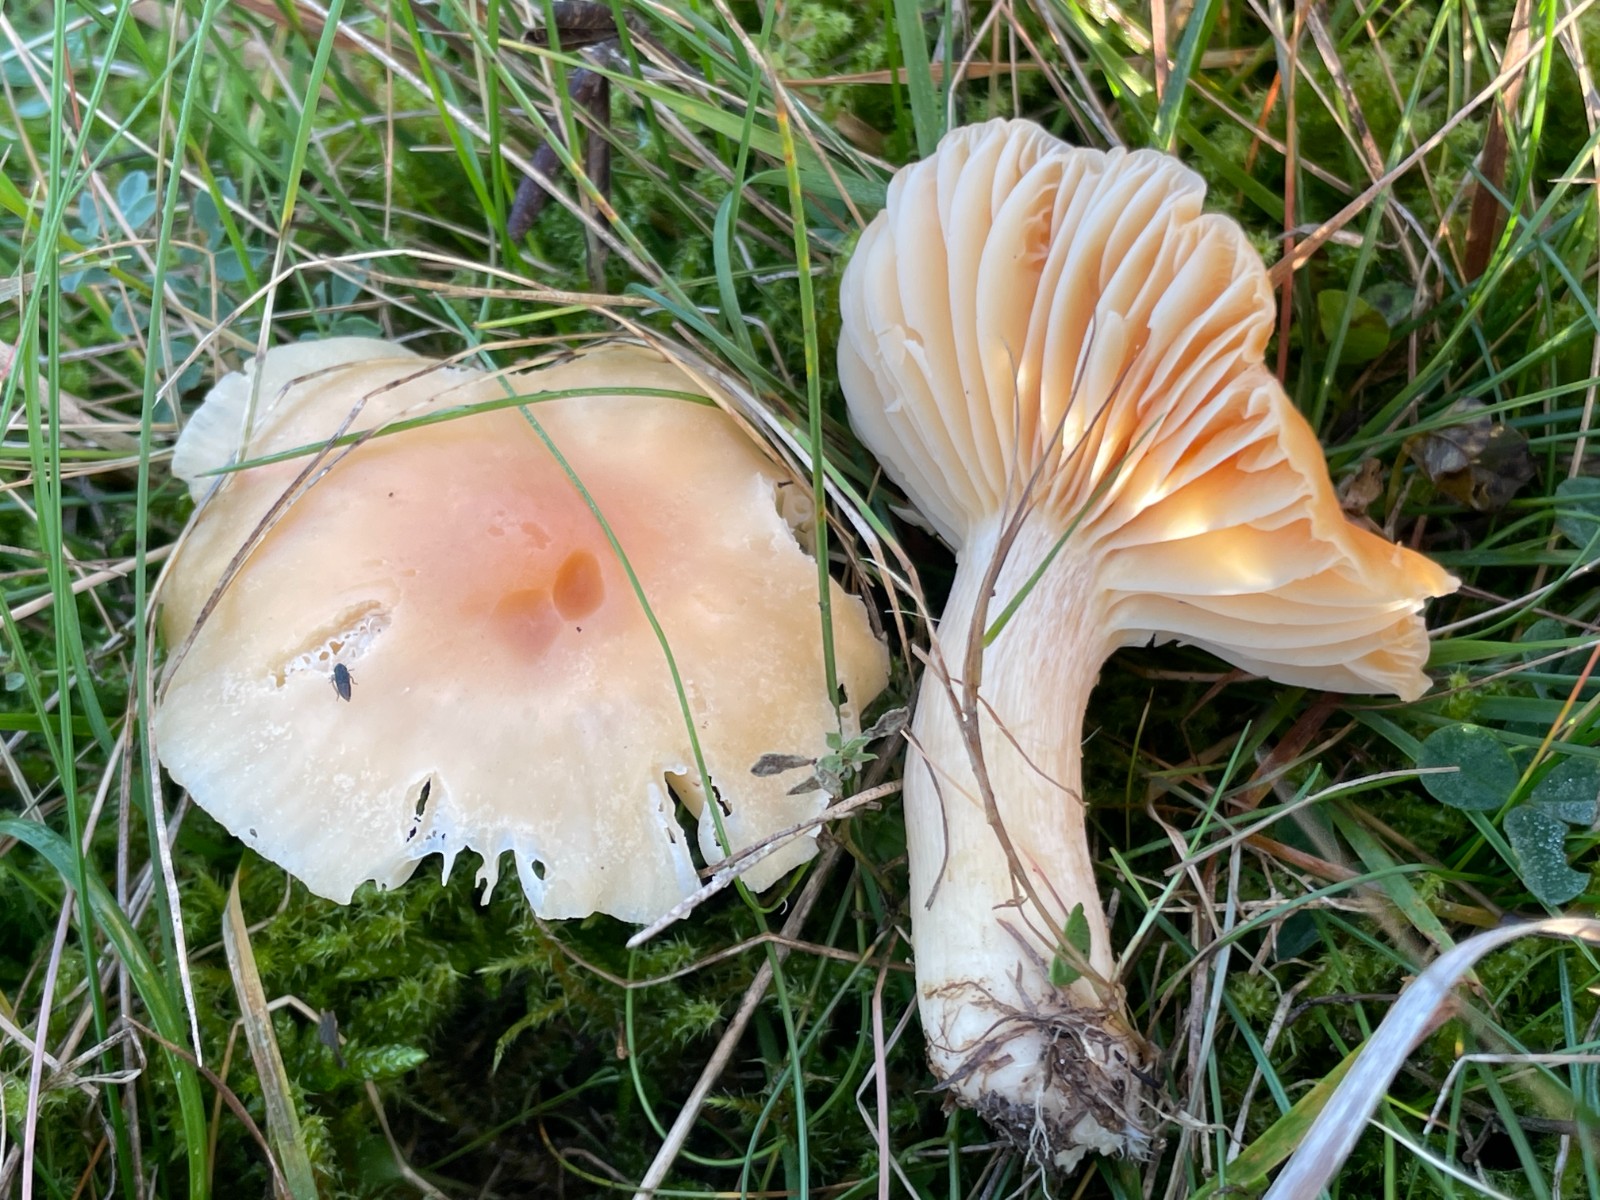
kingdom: Fungi
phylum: Basidiomycota
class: Agaricomycetes
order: Agaricales
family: Hygrophoraceae
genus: Cuphophyllus
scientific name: Cuphophyllus pratensis
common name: eng-vokshat
